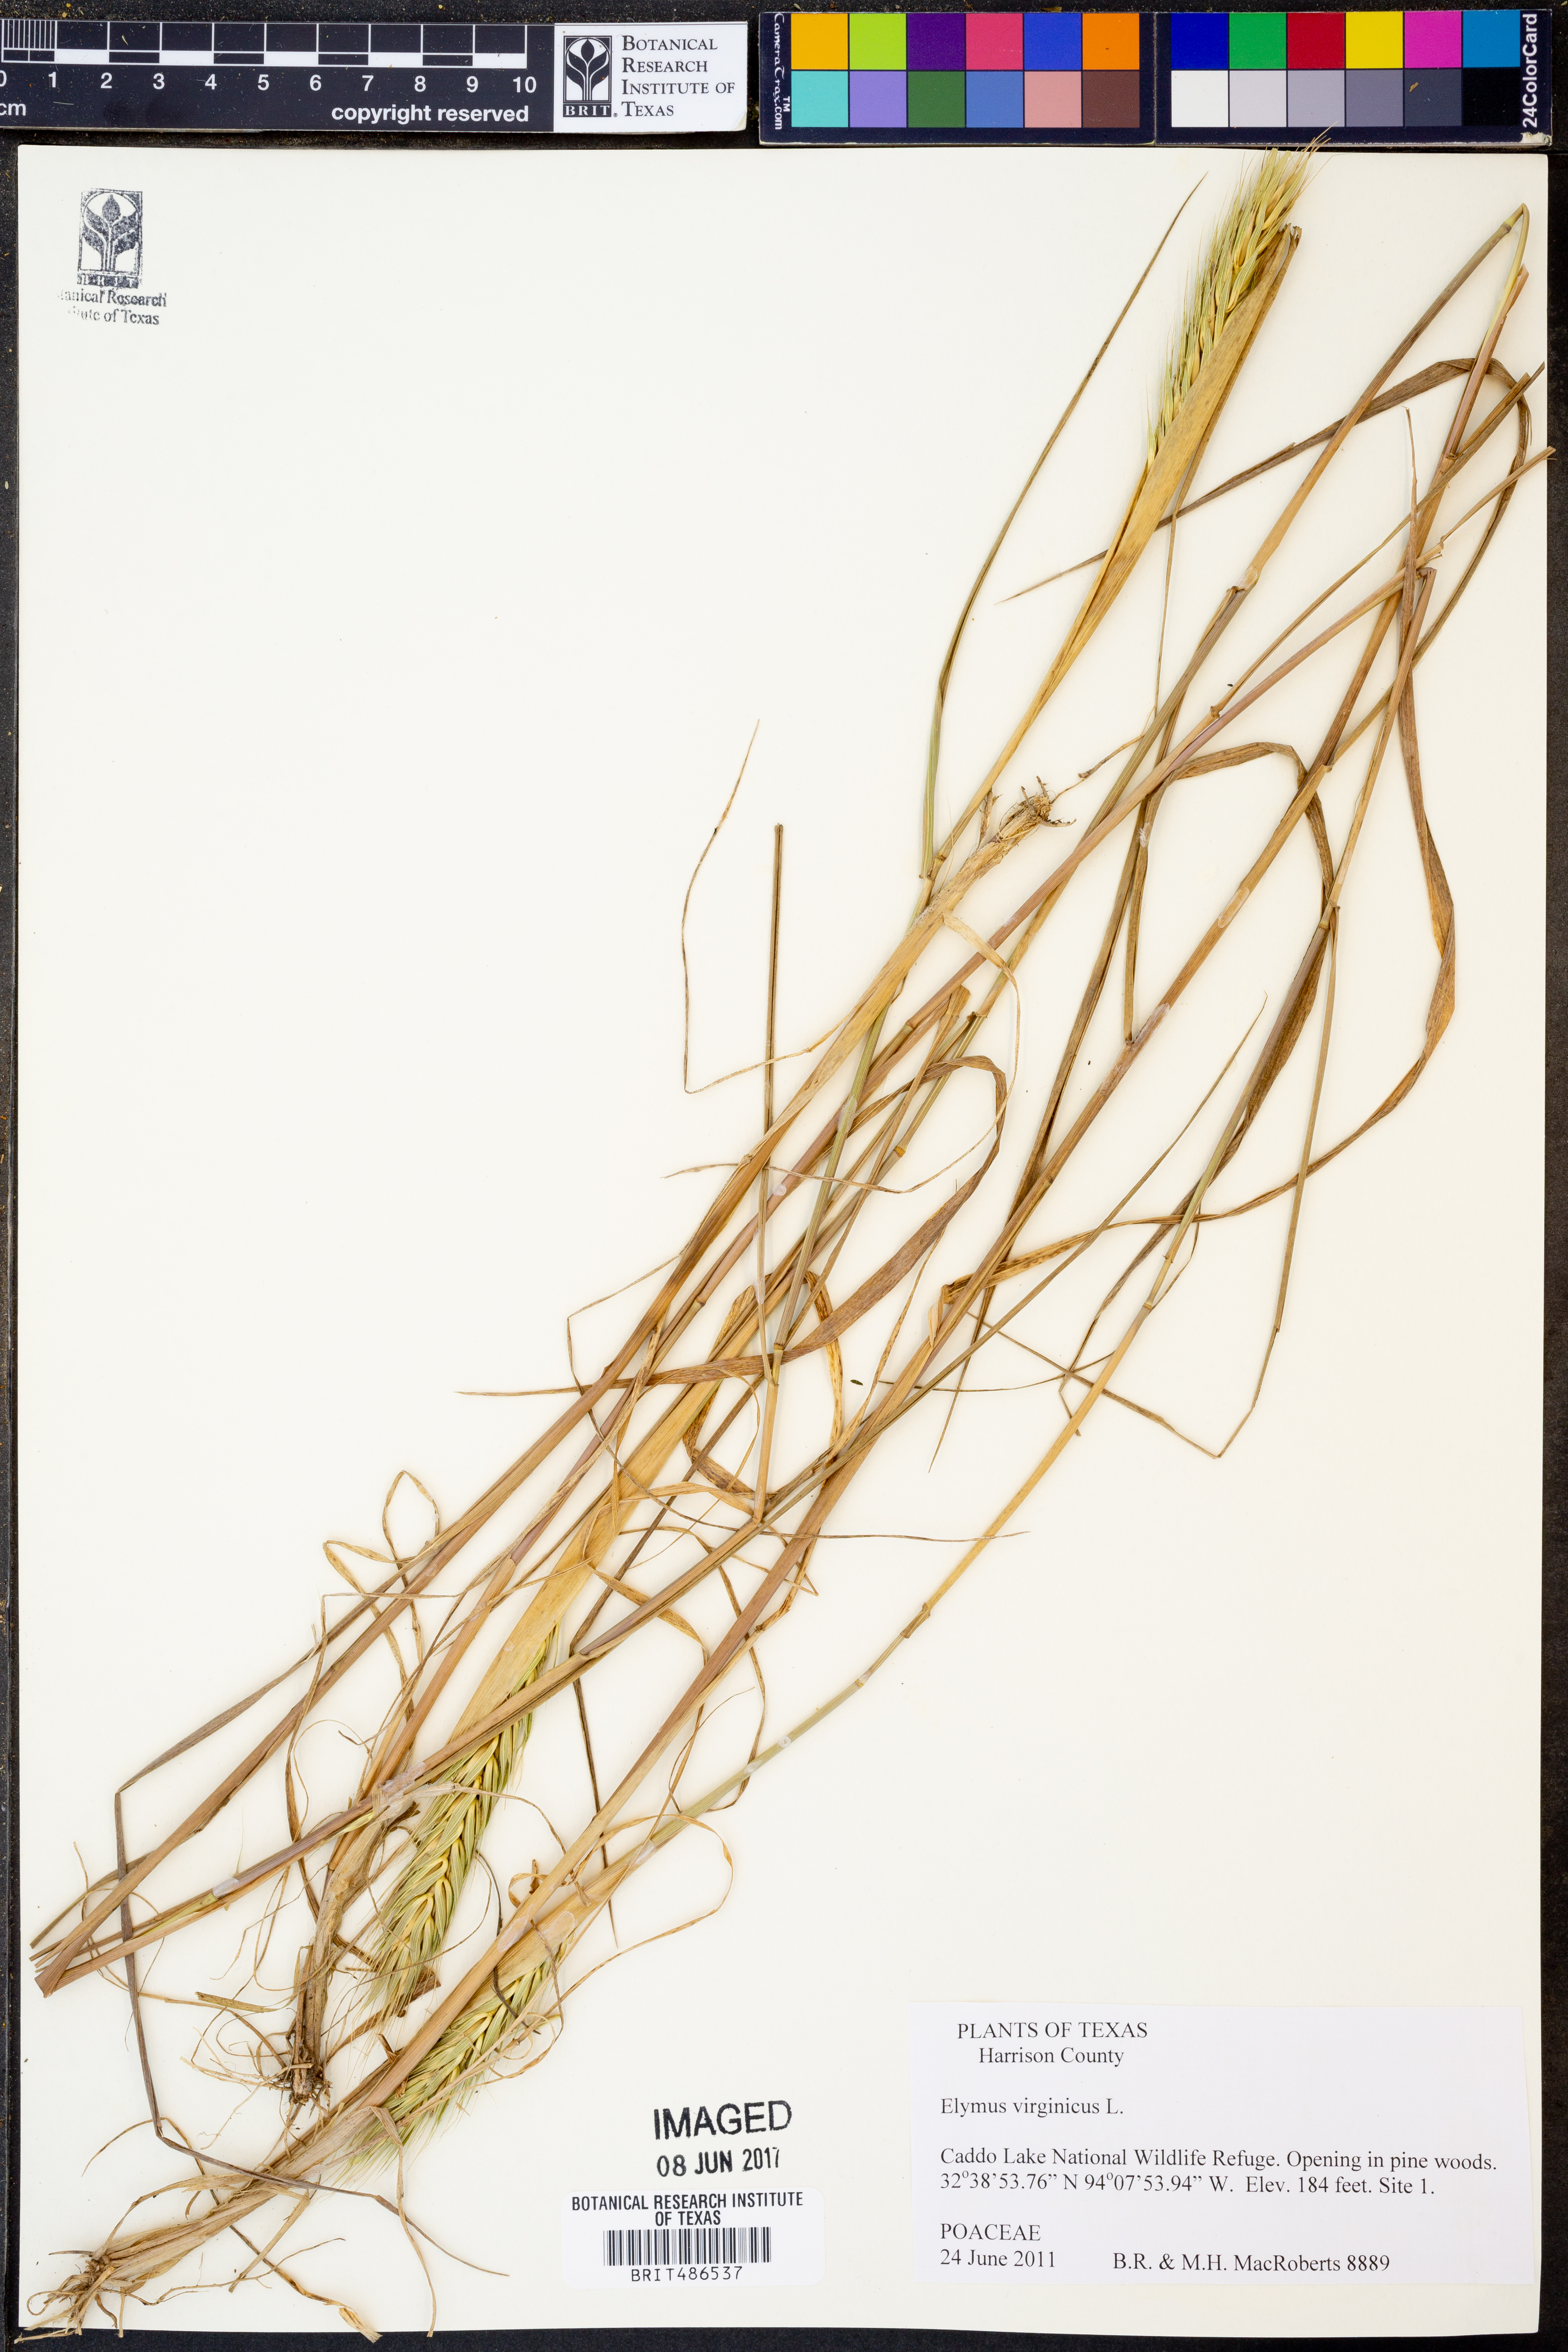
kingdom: Plantae
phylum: Tracheophyta
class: Liliopsida
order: Poales
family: Poaceae
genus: Elymus
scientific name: Elymus virginicus
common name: Common eastern wildrye
